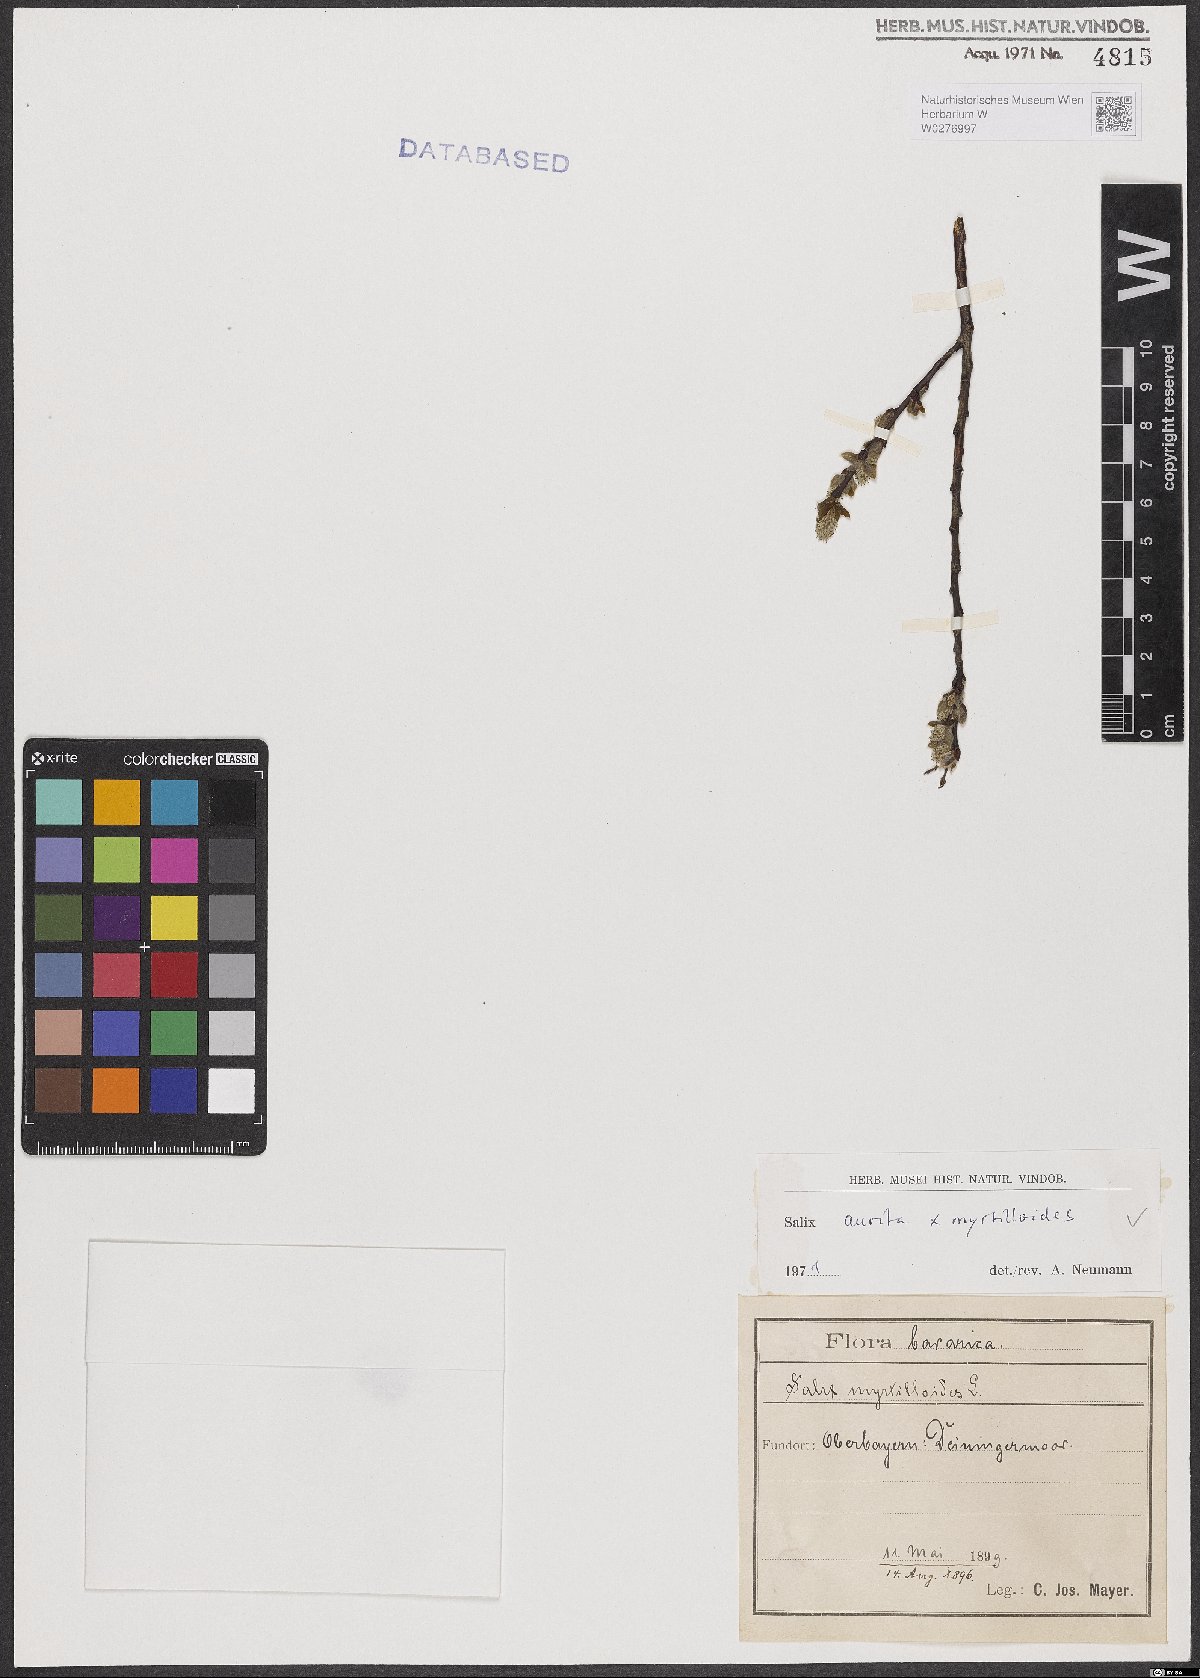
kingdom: Plantae
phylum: Tracheophyta
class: Magnoliopsida
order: Malpighiales
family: Salicaceae
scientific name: Salicaceae
